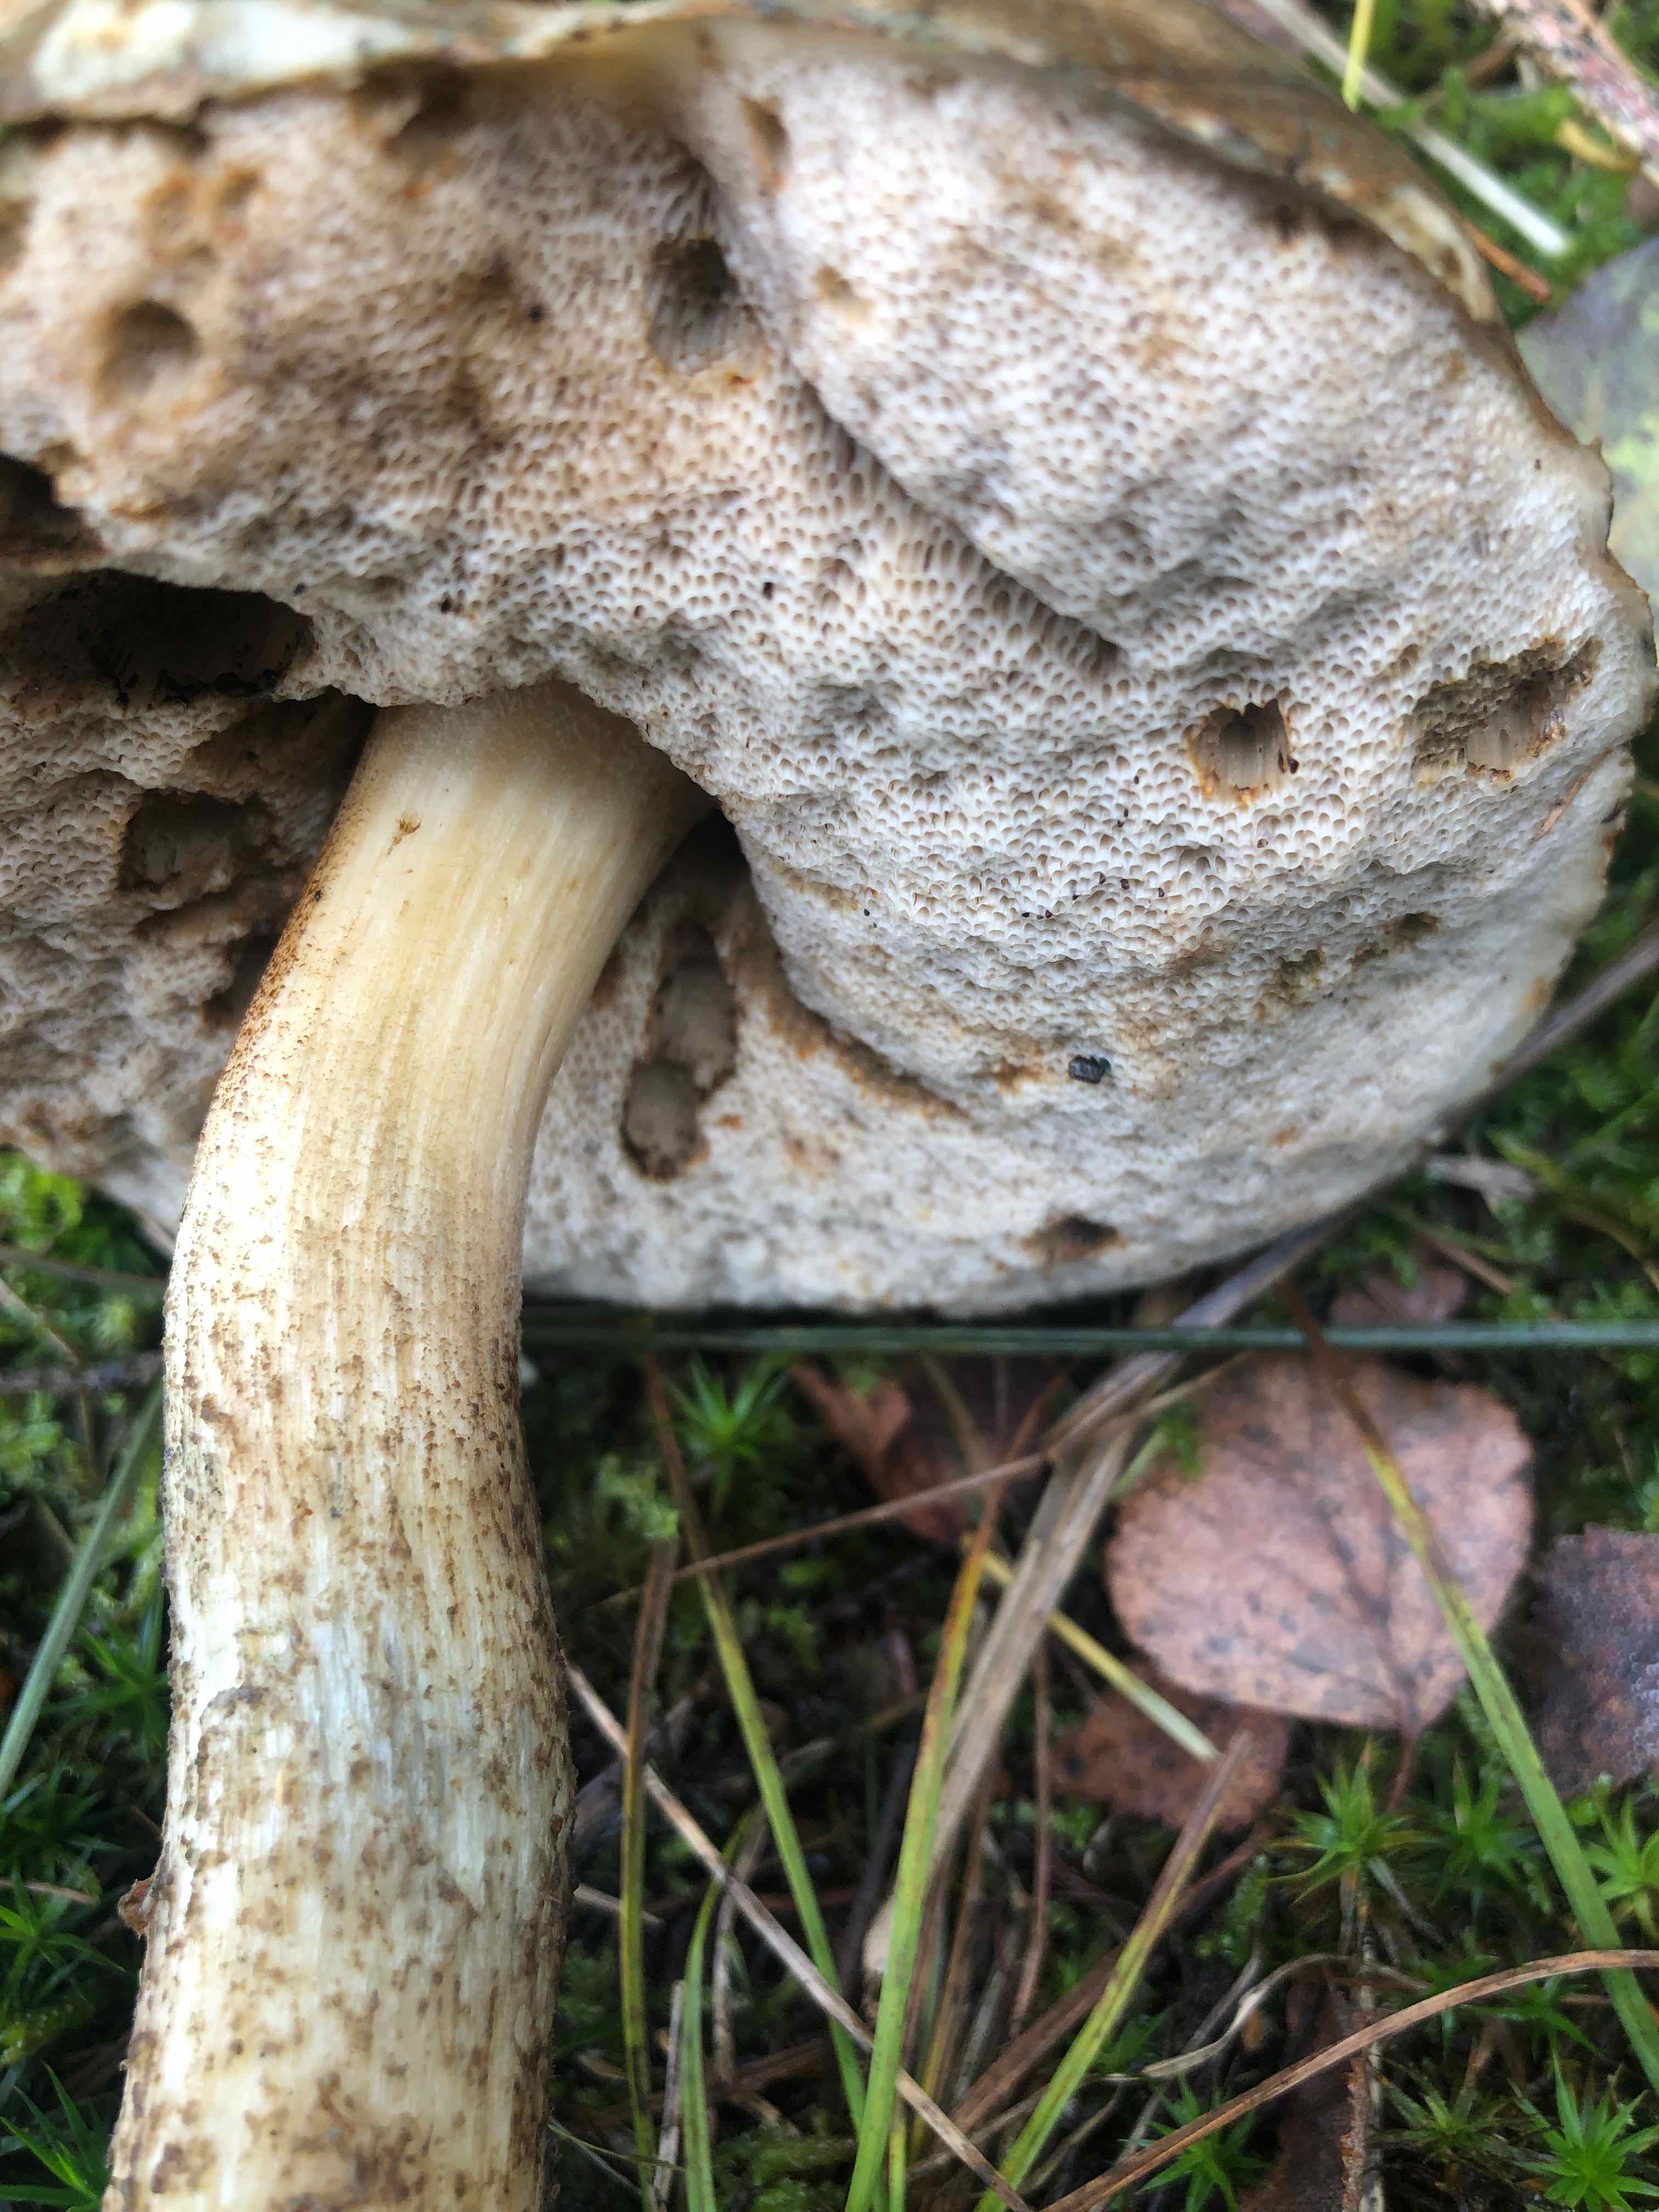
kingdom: Fungi
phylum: Basidiomycota
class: Agaricomycetes
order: Boletales
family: Boletaceae
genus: Leccinum
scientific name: Leccinum
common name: skælrørhat
